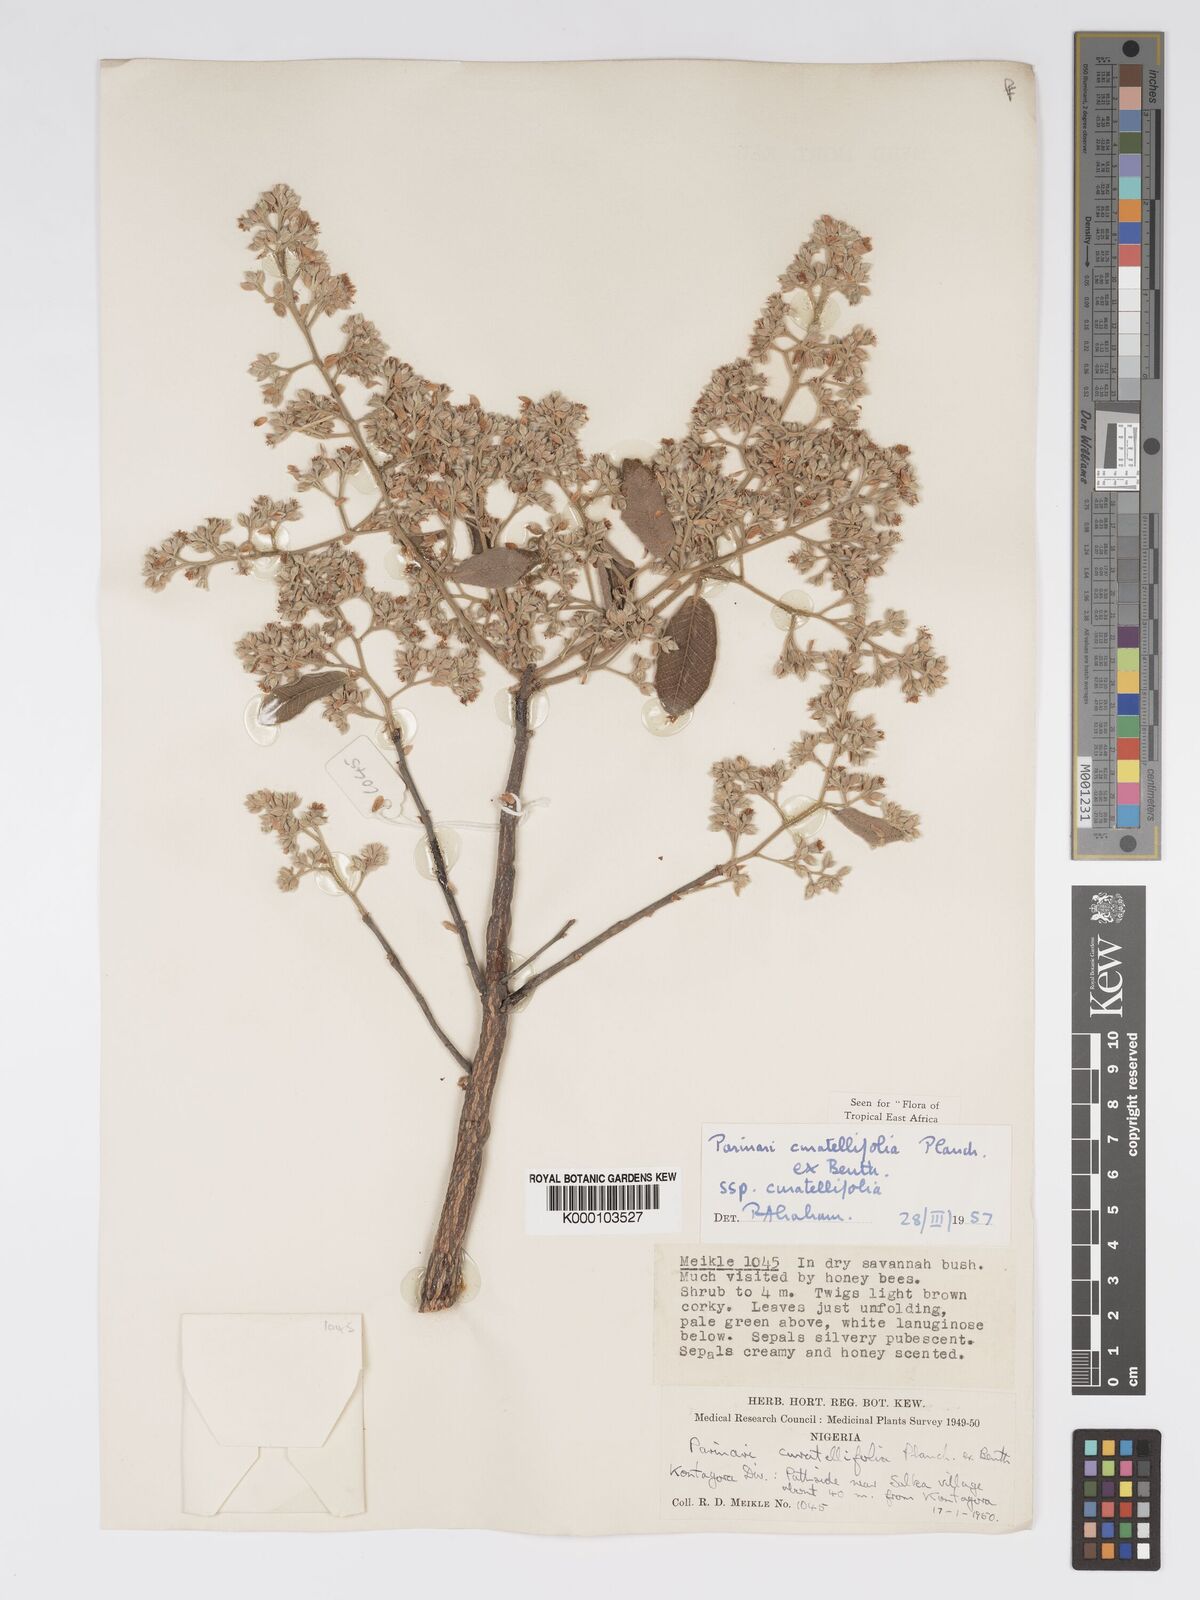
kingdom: Plantae
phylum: Tracheophyta
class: Magnoliopsida
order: Malpighiales
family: Chrysobalanaceae
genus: Parinari
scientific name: Parinari curatellifolia
